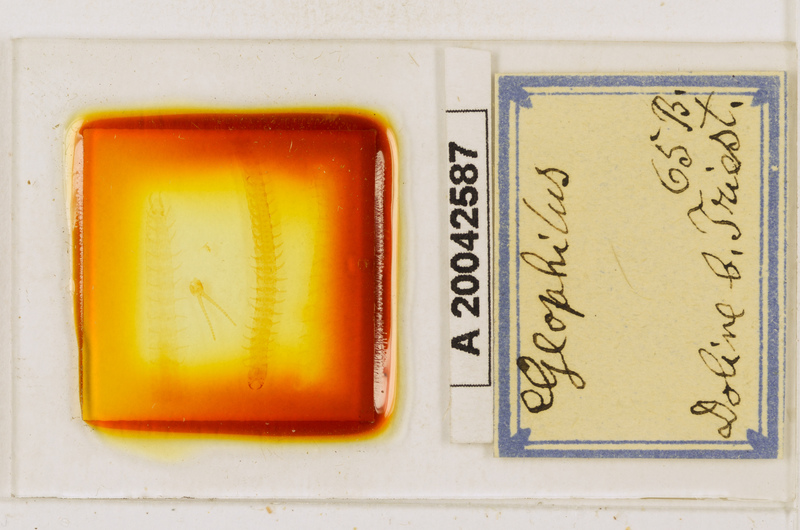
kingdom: Animalia
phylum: Arthropoda
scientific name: Arthropoda
